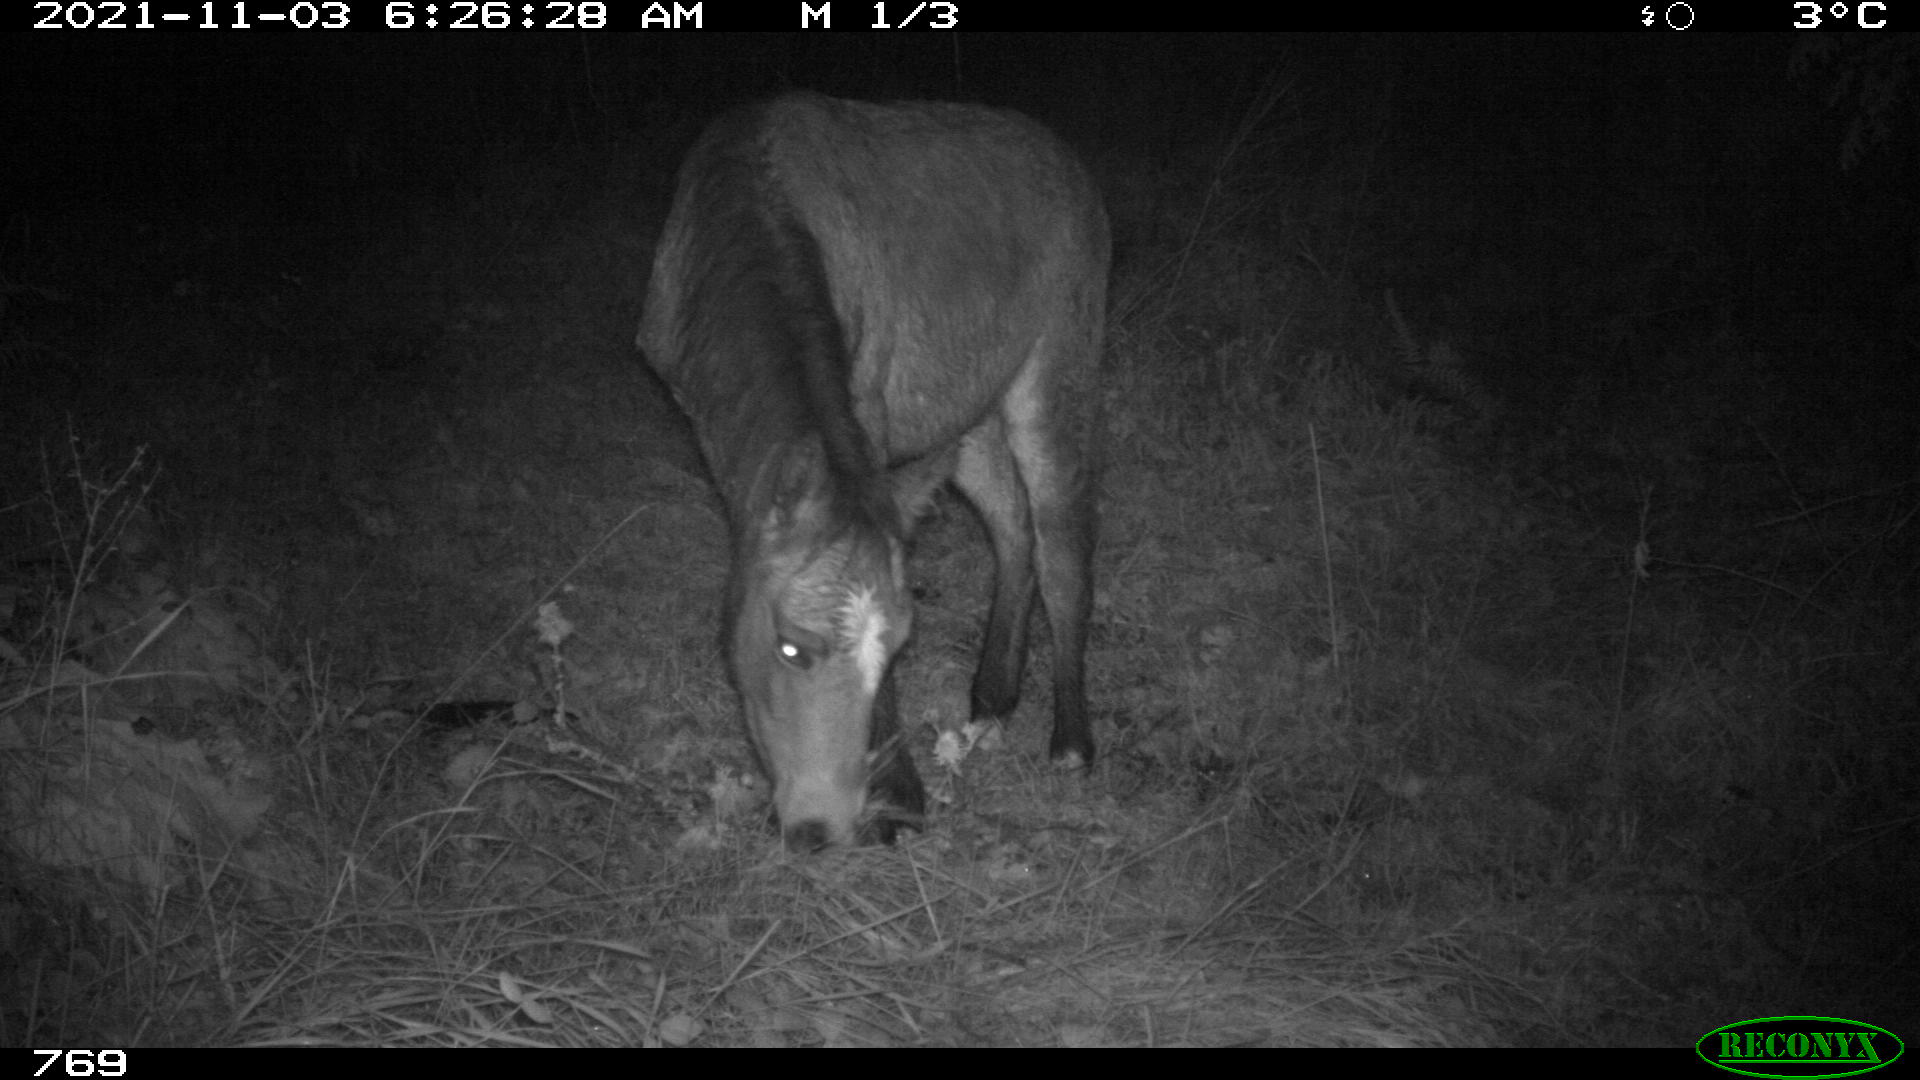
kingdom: Animalia
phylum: Chordata
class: Mammalia
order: Perissodactyla
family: Equidae
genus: Equus
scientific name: Equus caballus
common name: Horse
